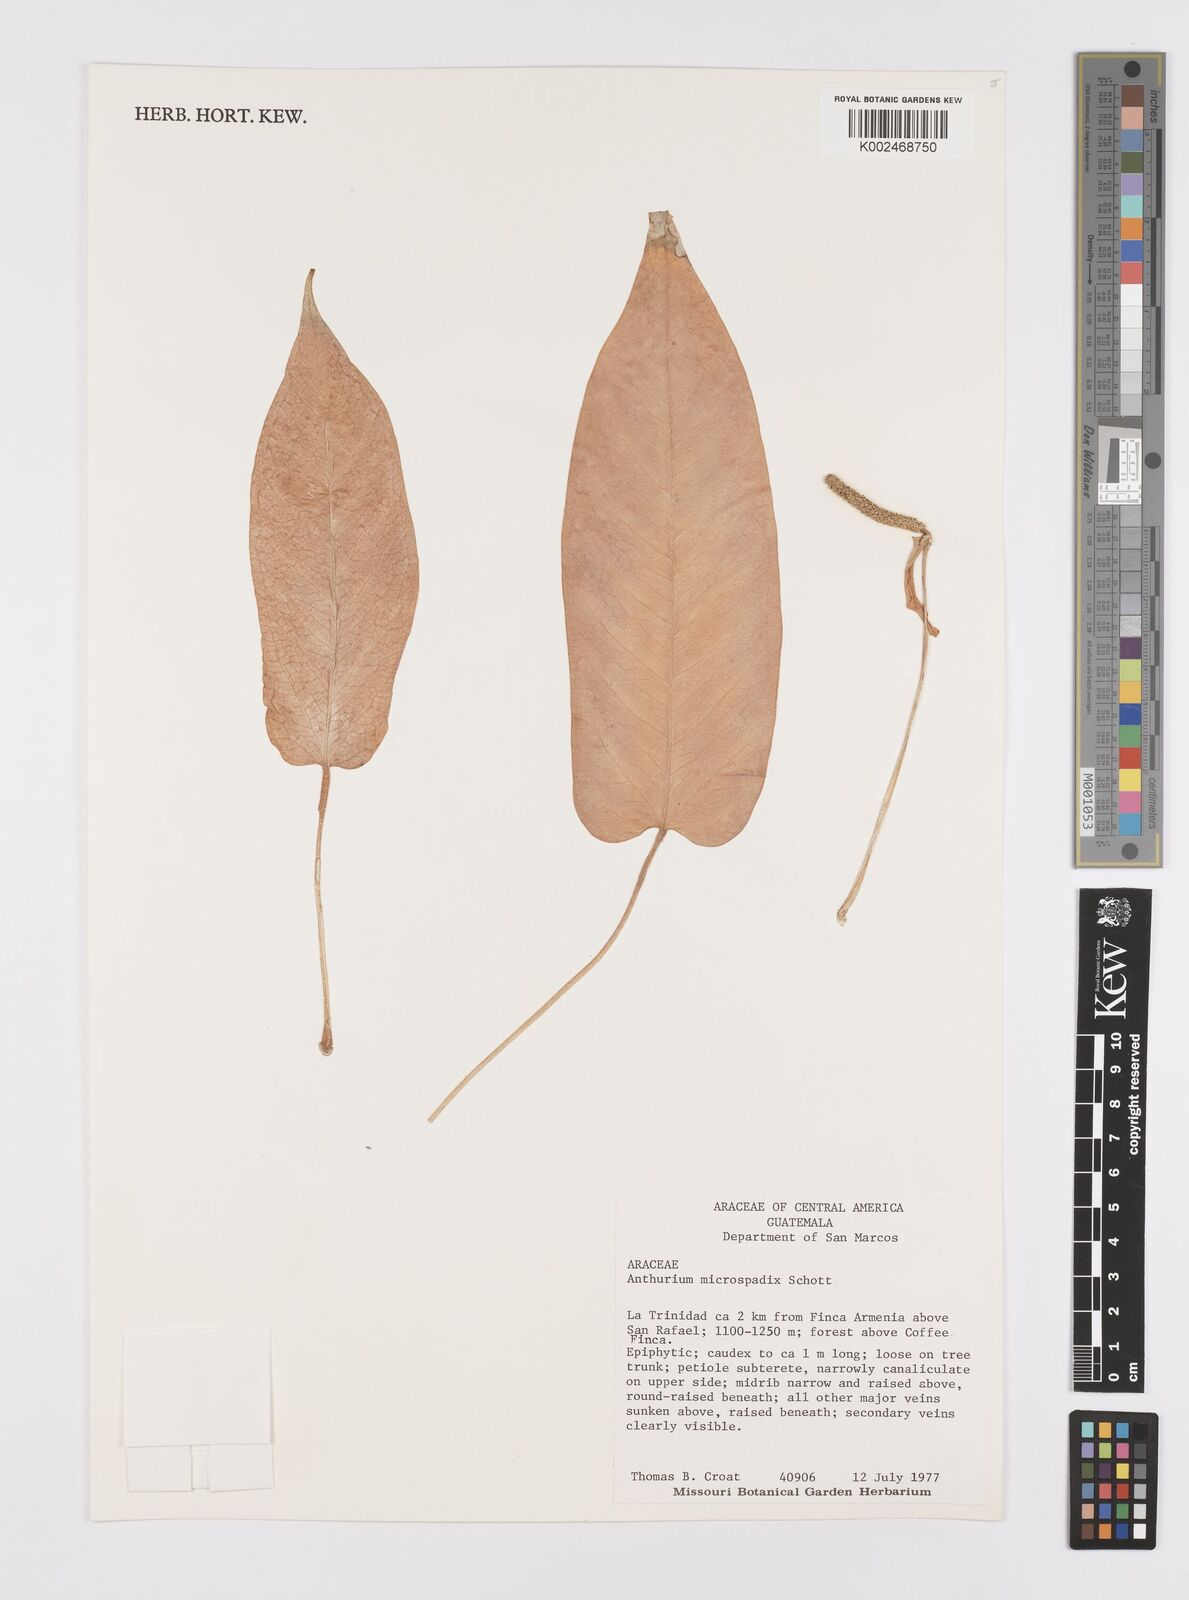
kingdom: Plantae
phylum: Tracheophyta
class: Liliopsida
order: Alismatales
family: Araceae
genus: Anthurium
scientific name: Anthurium microspadix
